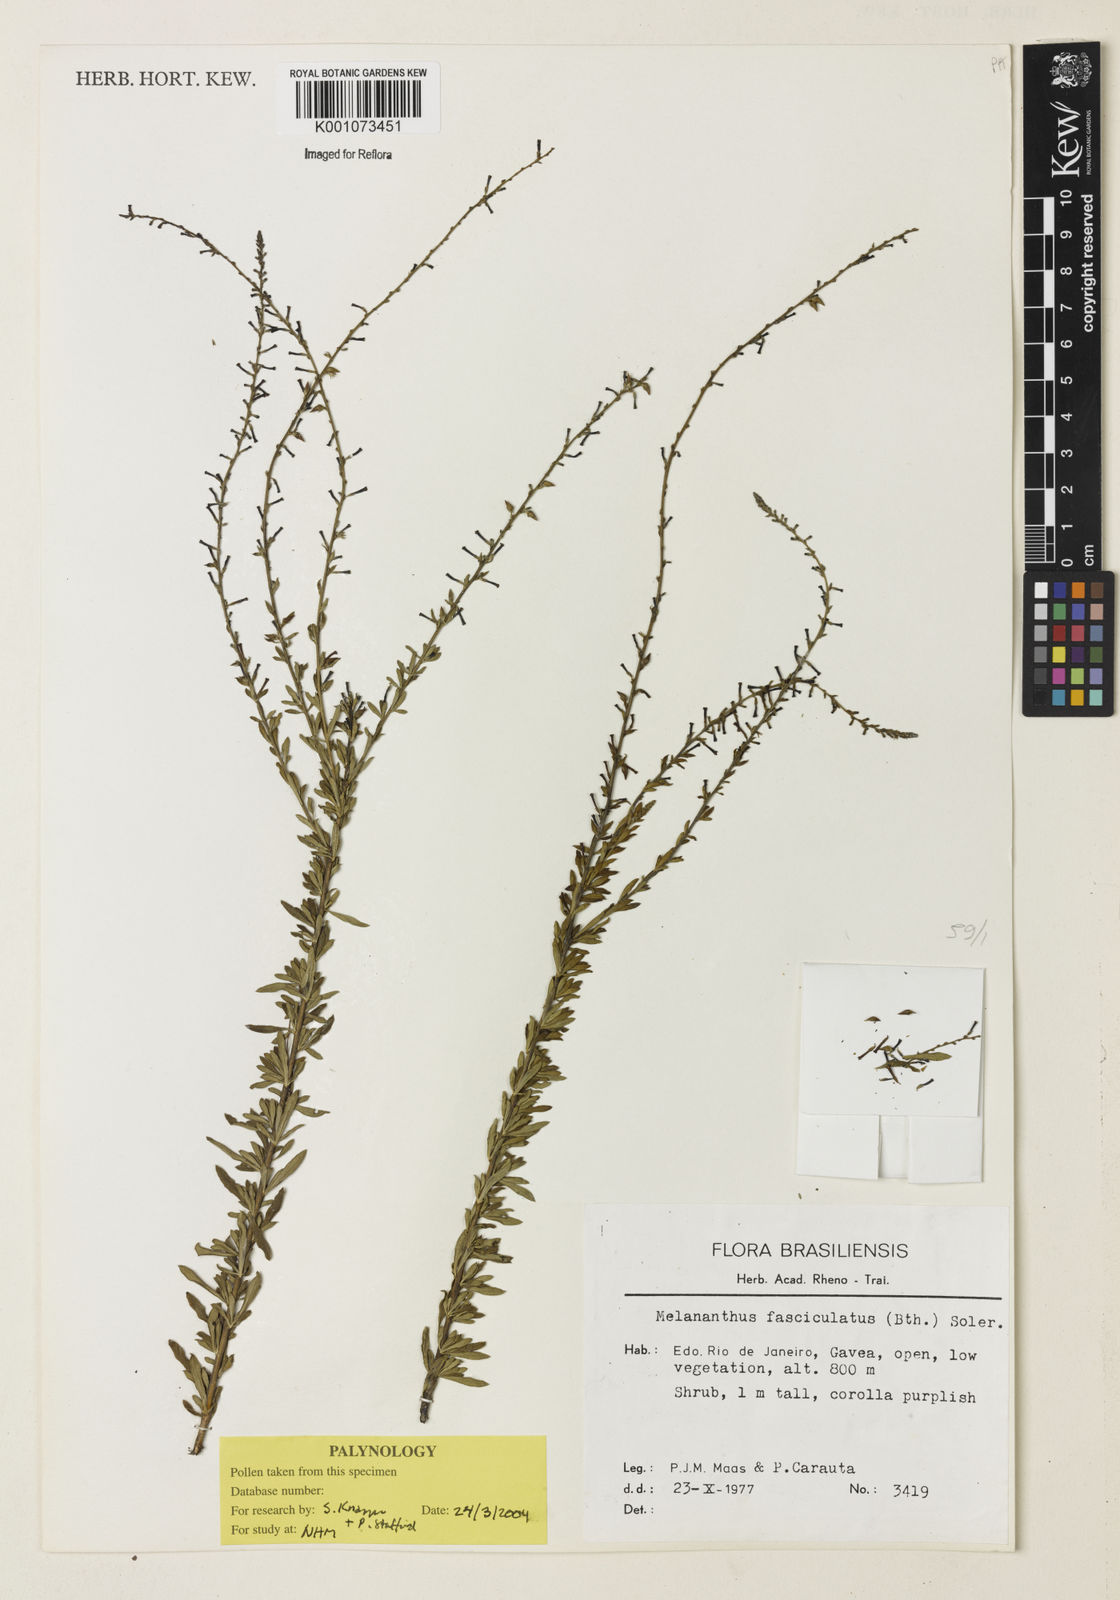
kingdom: Plantae
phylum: Tracheophyta
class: Magnoliopsida
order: Solanales
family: Solanaceae
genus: Melananthus
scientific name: Melananthus fasciculatus
